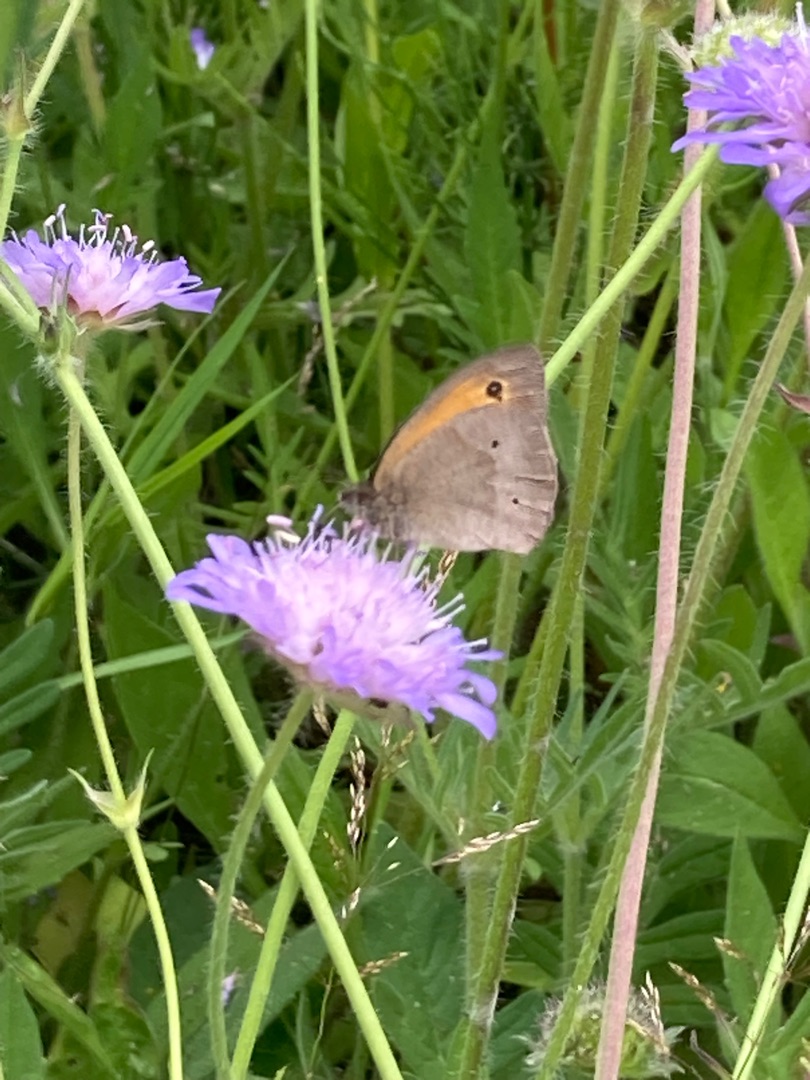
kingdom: Animalia
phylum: Arthropoda
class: Insecta
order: Lepidoptera
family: Nymphalidae
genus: Maniola
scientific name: Maniola jurtina
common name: Græsrandøje
